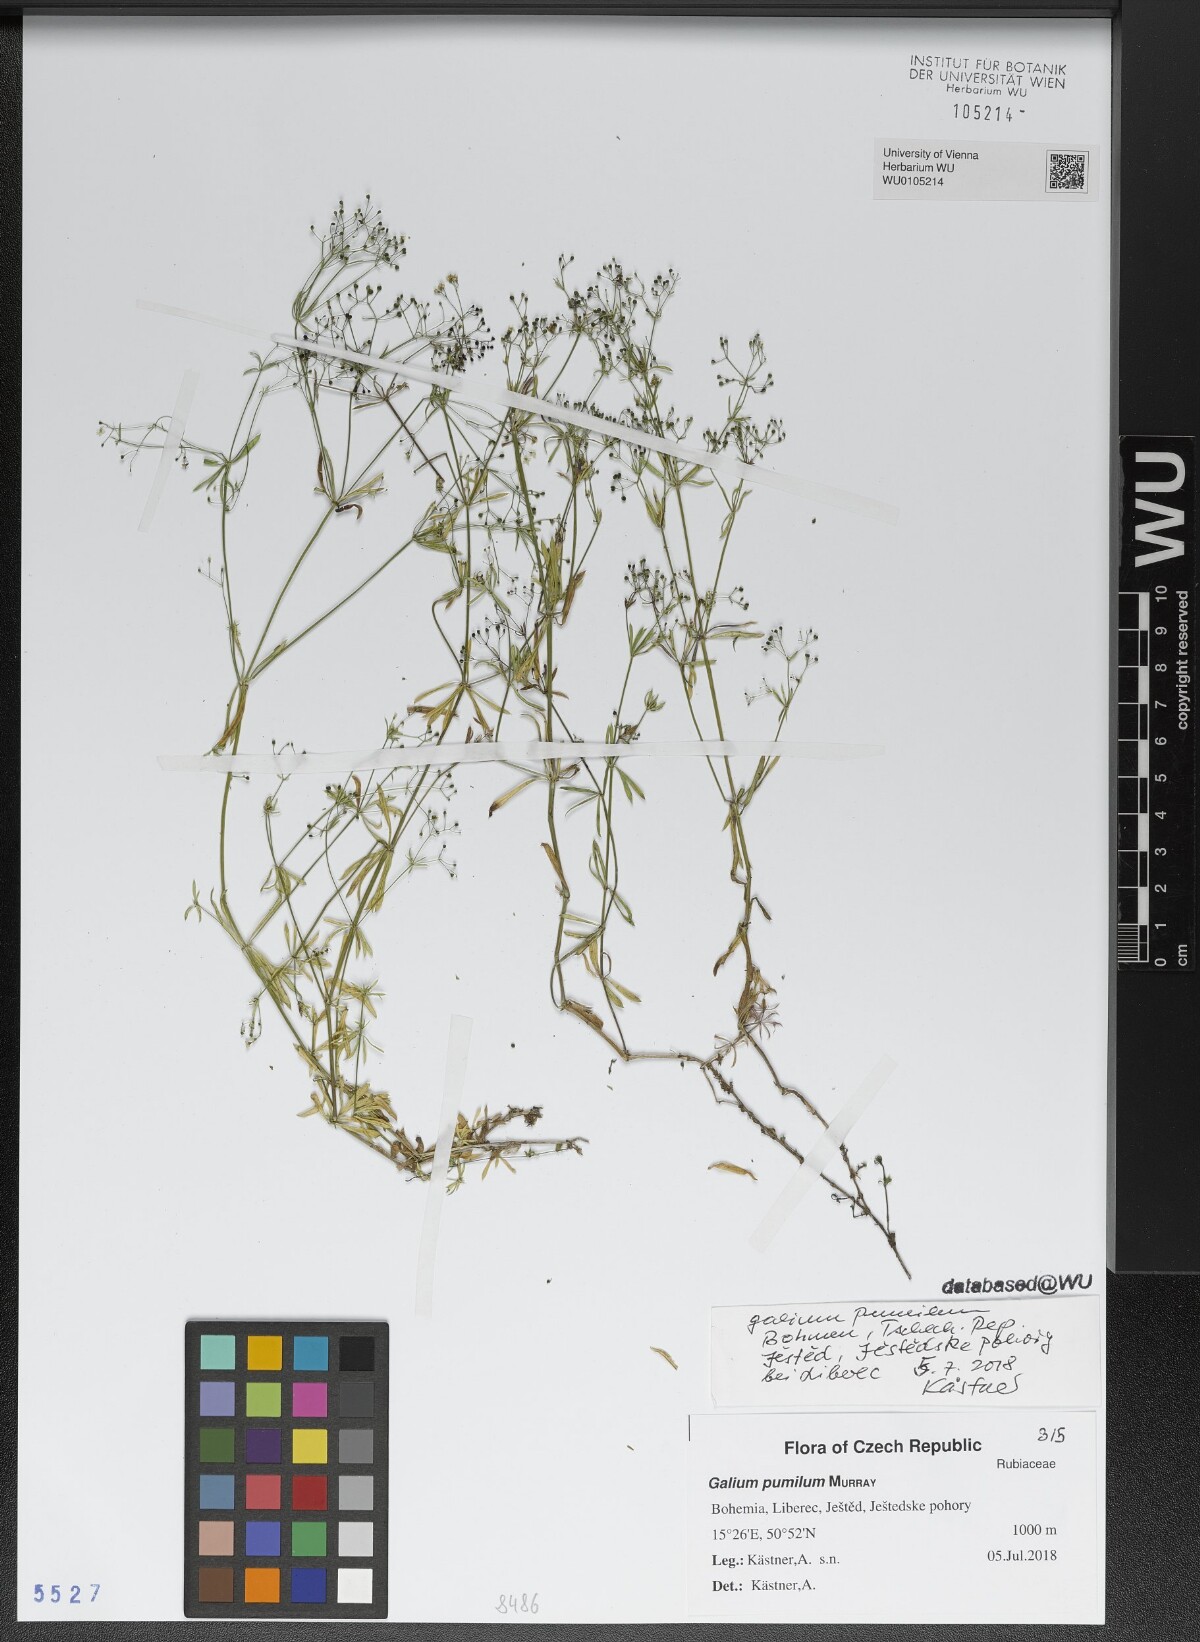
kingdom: Plantae
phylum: Tracheophyta
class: Magnoliopsida
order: Gentianales
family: Rubiaceae
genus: Galium
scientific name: Galium pumilum
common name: Slender bedstraw
